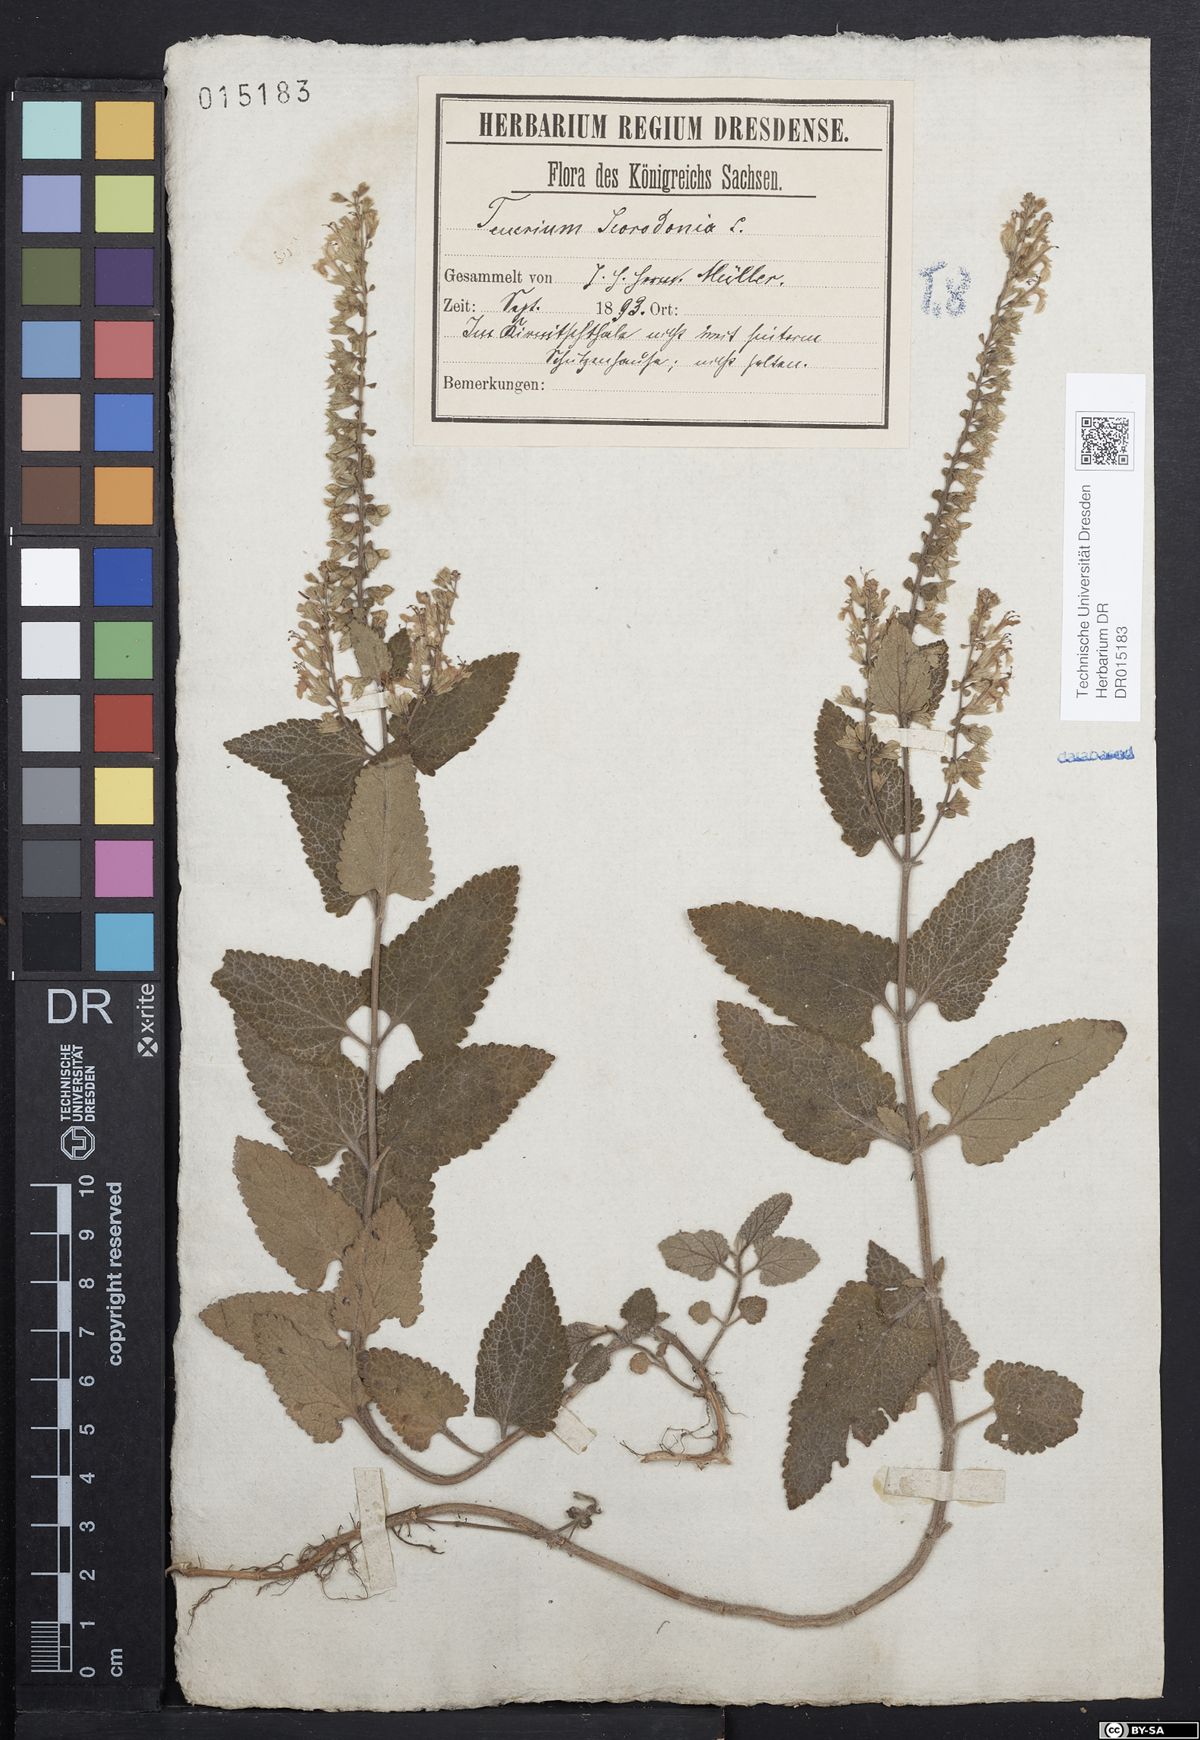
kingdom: Plantae
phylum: Tracheophyta
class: Magnoliopsida
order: Lamiales
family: Lamiaceae
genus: Teucrium
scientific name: Teucrium scorodonia
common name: Woodland germander
